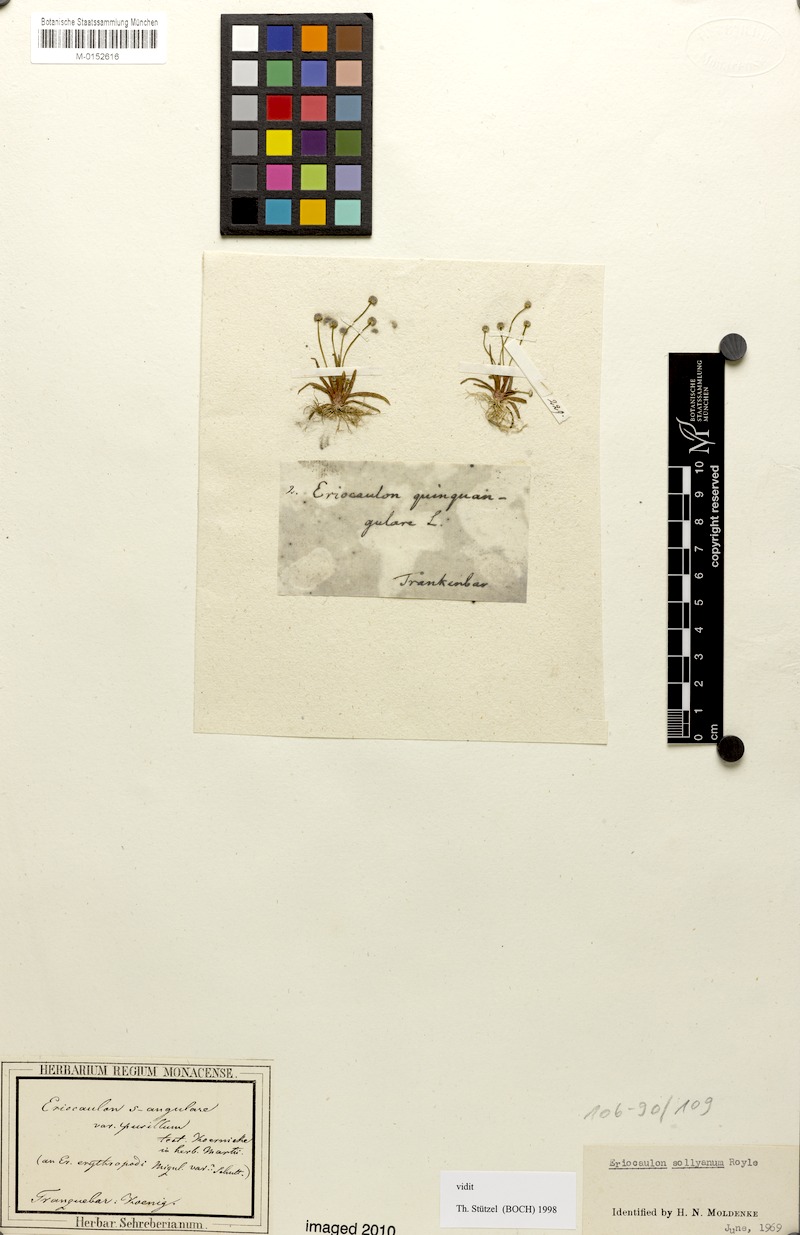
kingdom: Plantae
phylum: Tracheophyta
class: Liliopsida
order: Poales
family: Eriocaulaceae
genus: Eriocaulon
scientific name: Eriocaulon sollyanum
